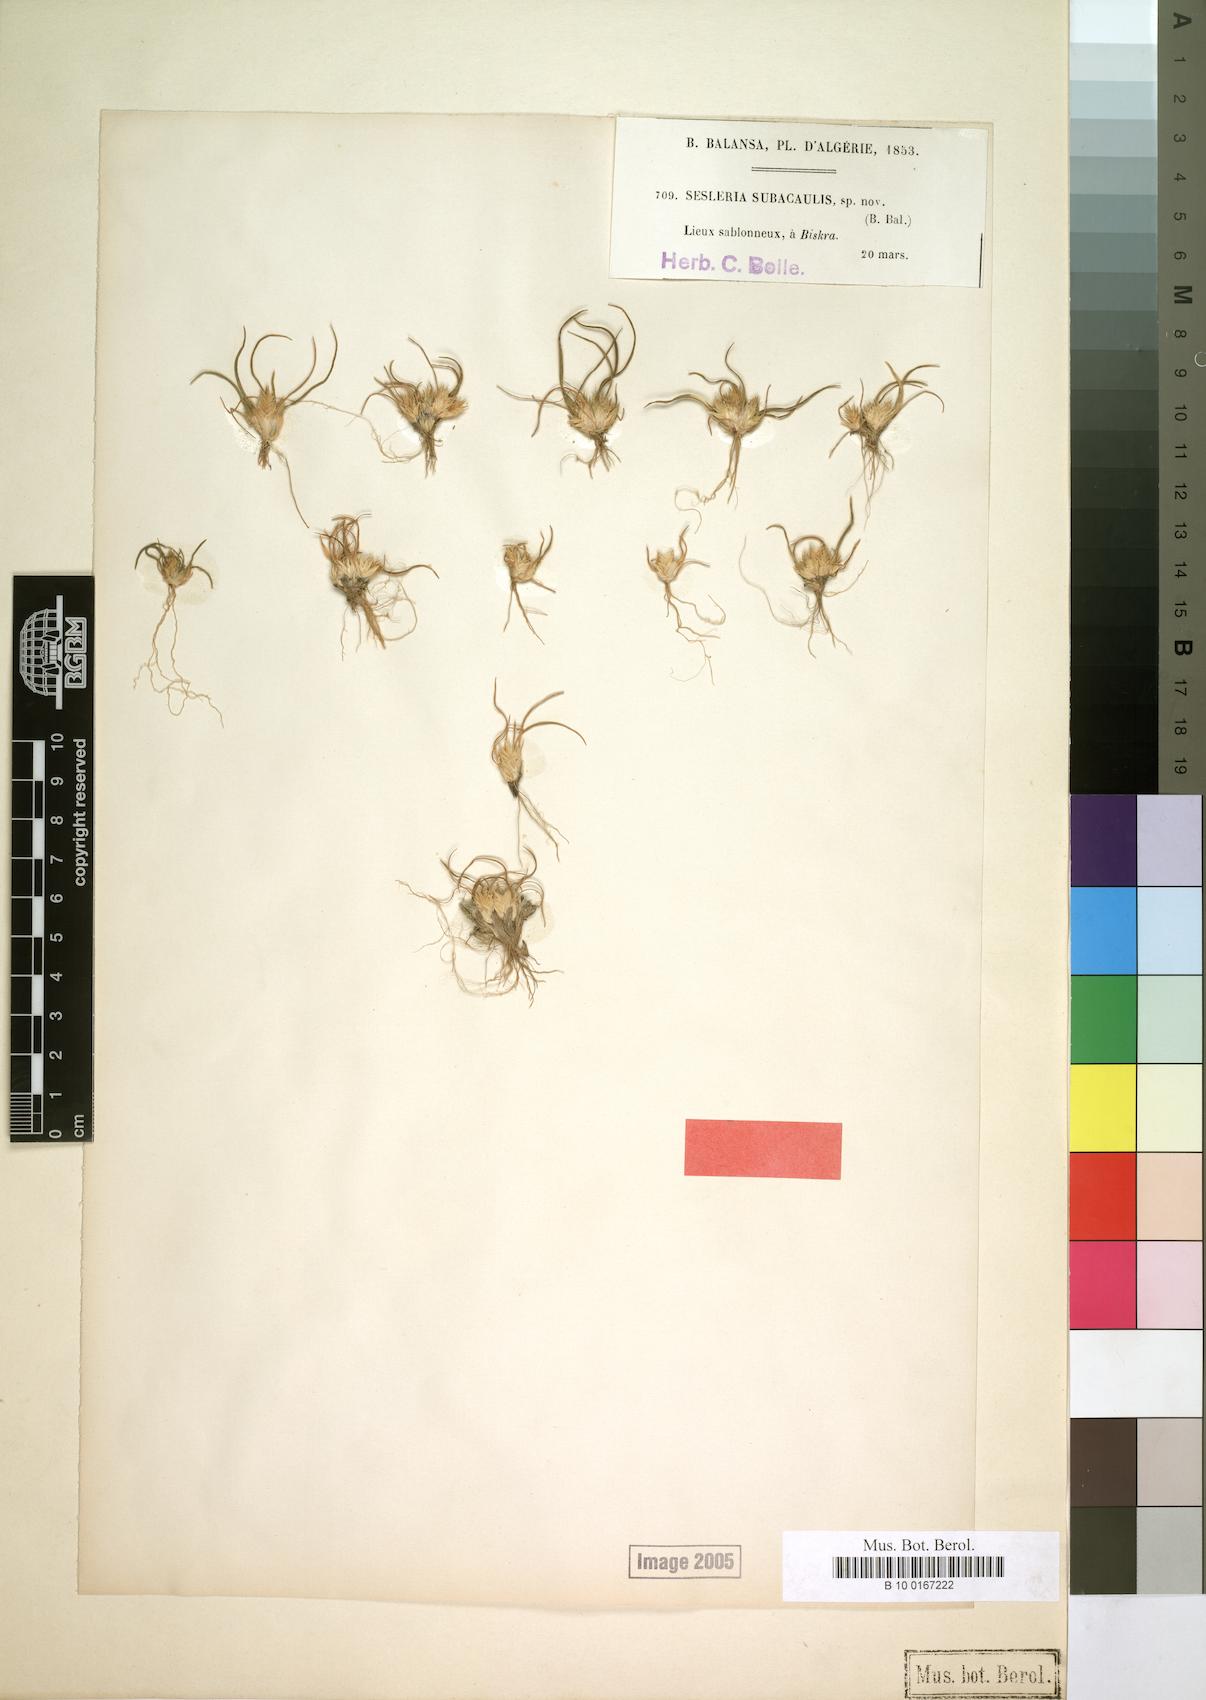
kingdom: Plantae
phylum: Tracheophyta
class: Liliopsida
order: Poales
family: Poaceae
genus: Ammochloa
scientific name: Ammochloa palaestina
